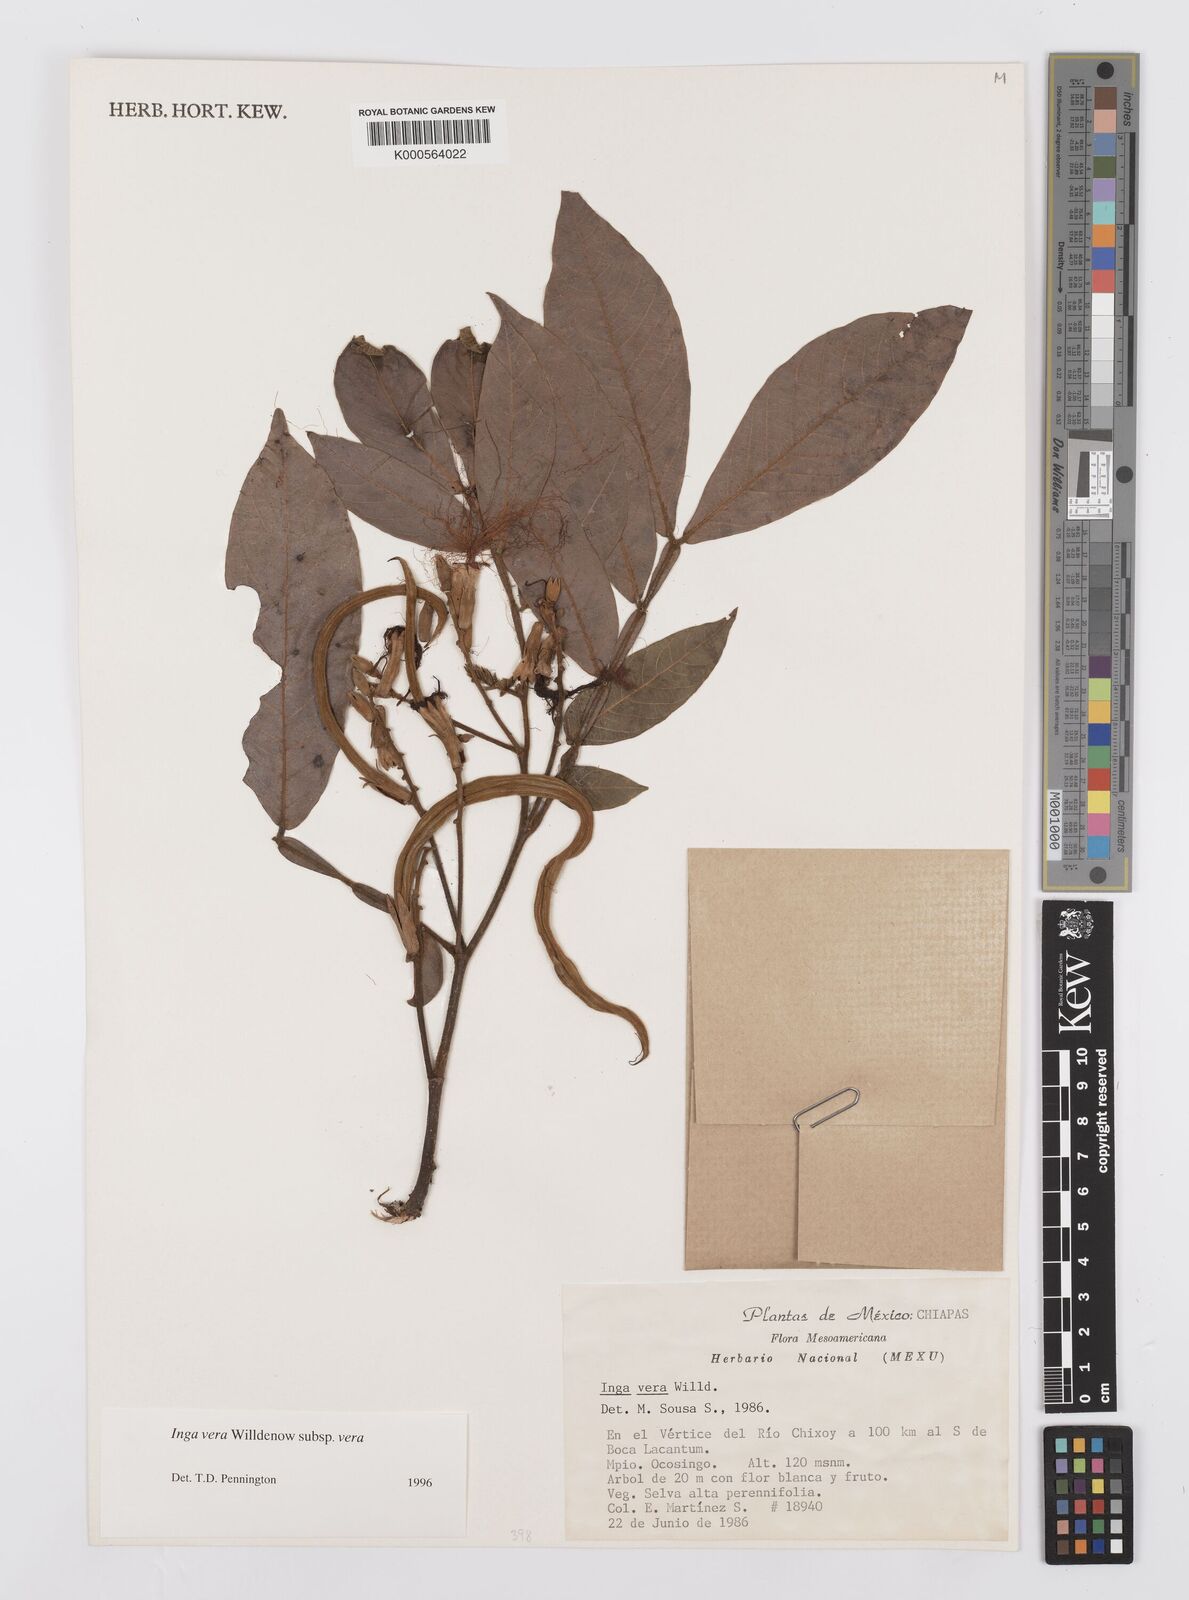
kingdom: Plantae
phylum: Tracheophyta
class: Magnoliopsida
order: Fabales
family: Fabaceae
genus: Inga
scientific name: Inga vera
